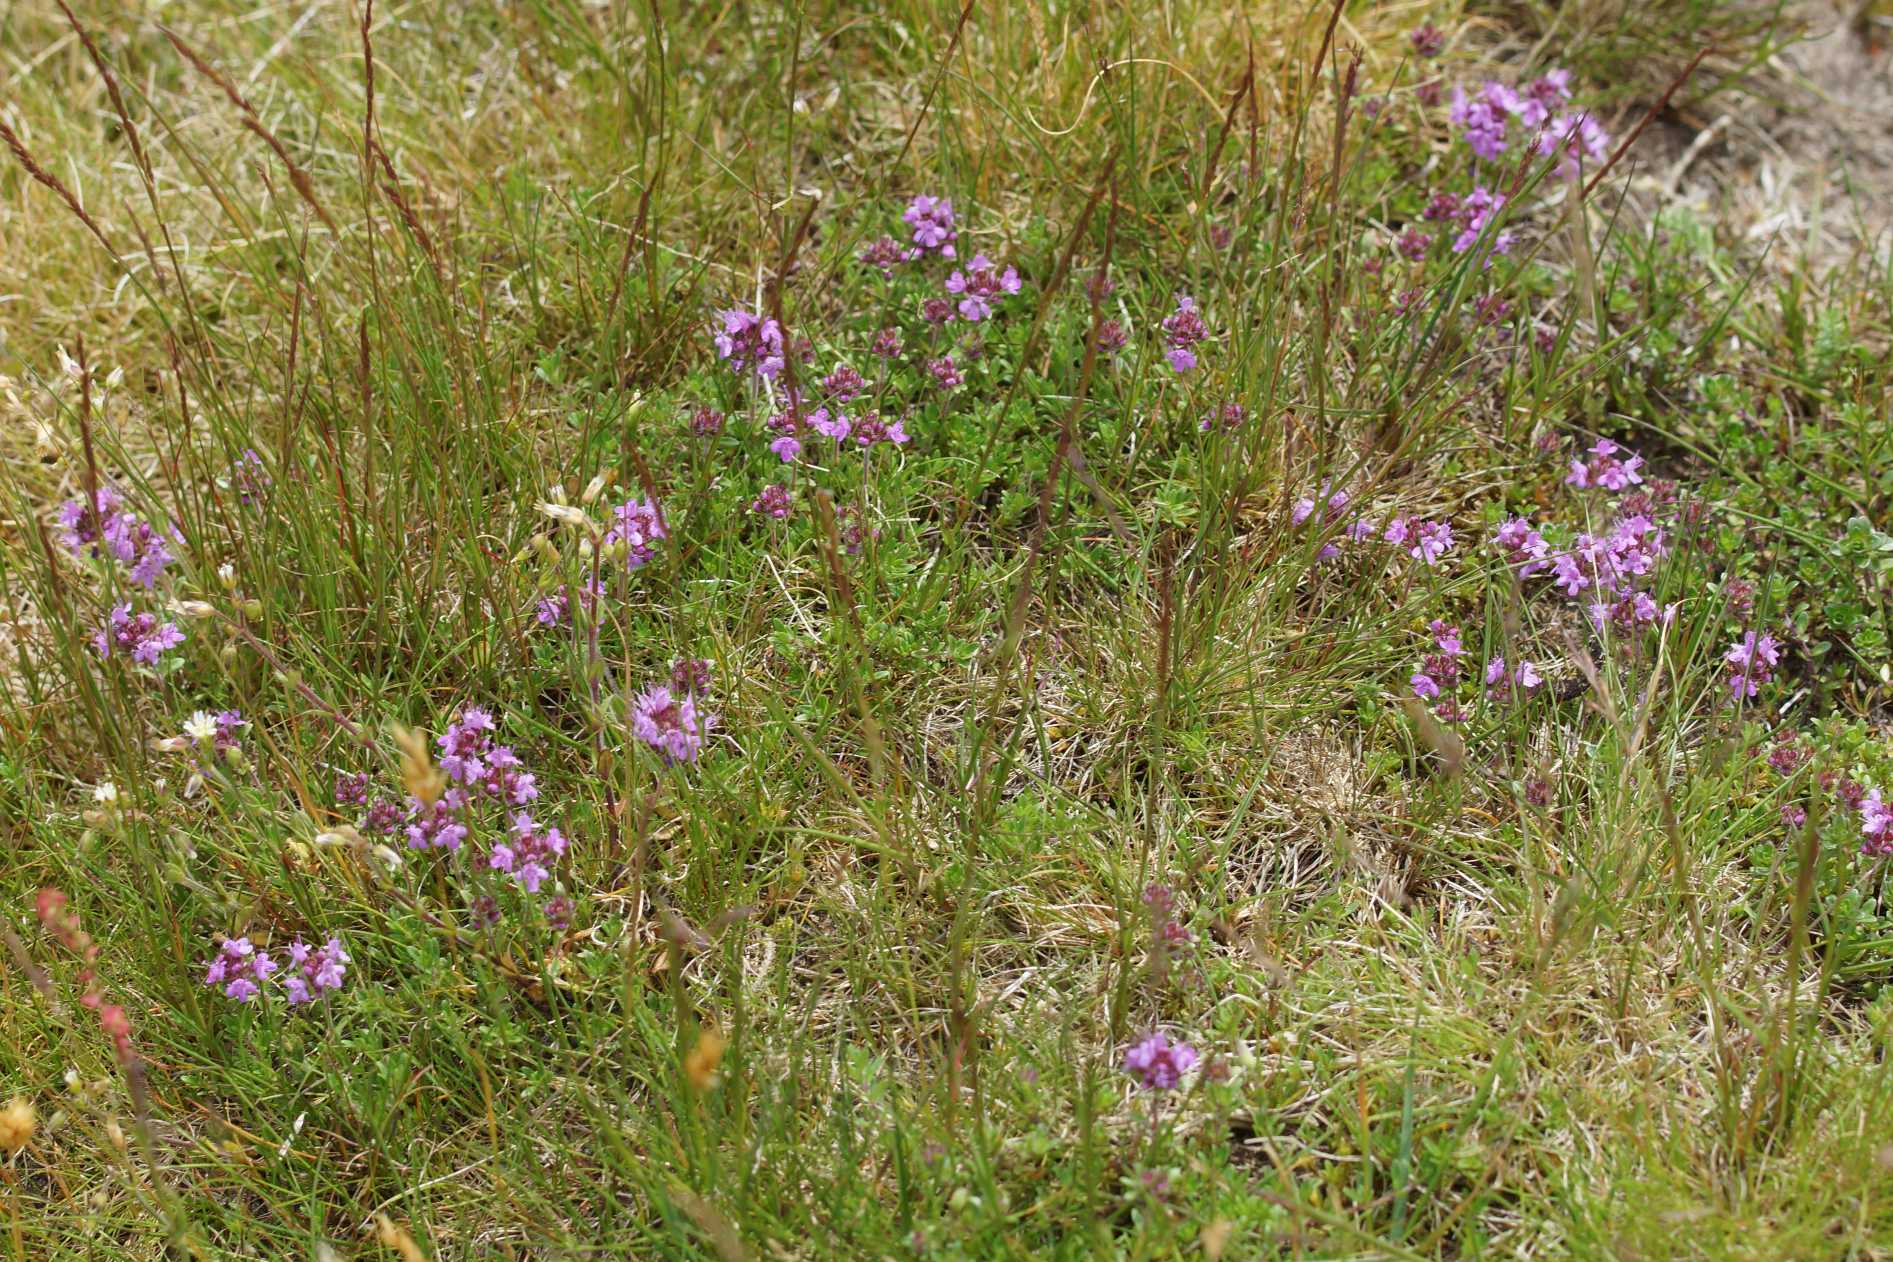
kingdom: Plantae
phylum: Tracheophyta
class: Magnoliopsida
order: Lamiales
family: Lamiaceae
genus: Thymus
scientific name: Thymus serpyllum
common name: Smalbladet timian
